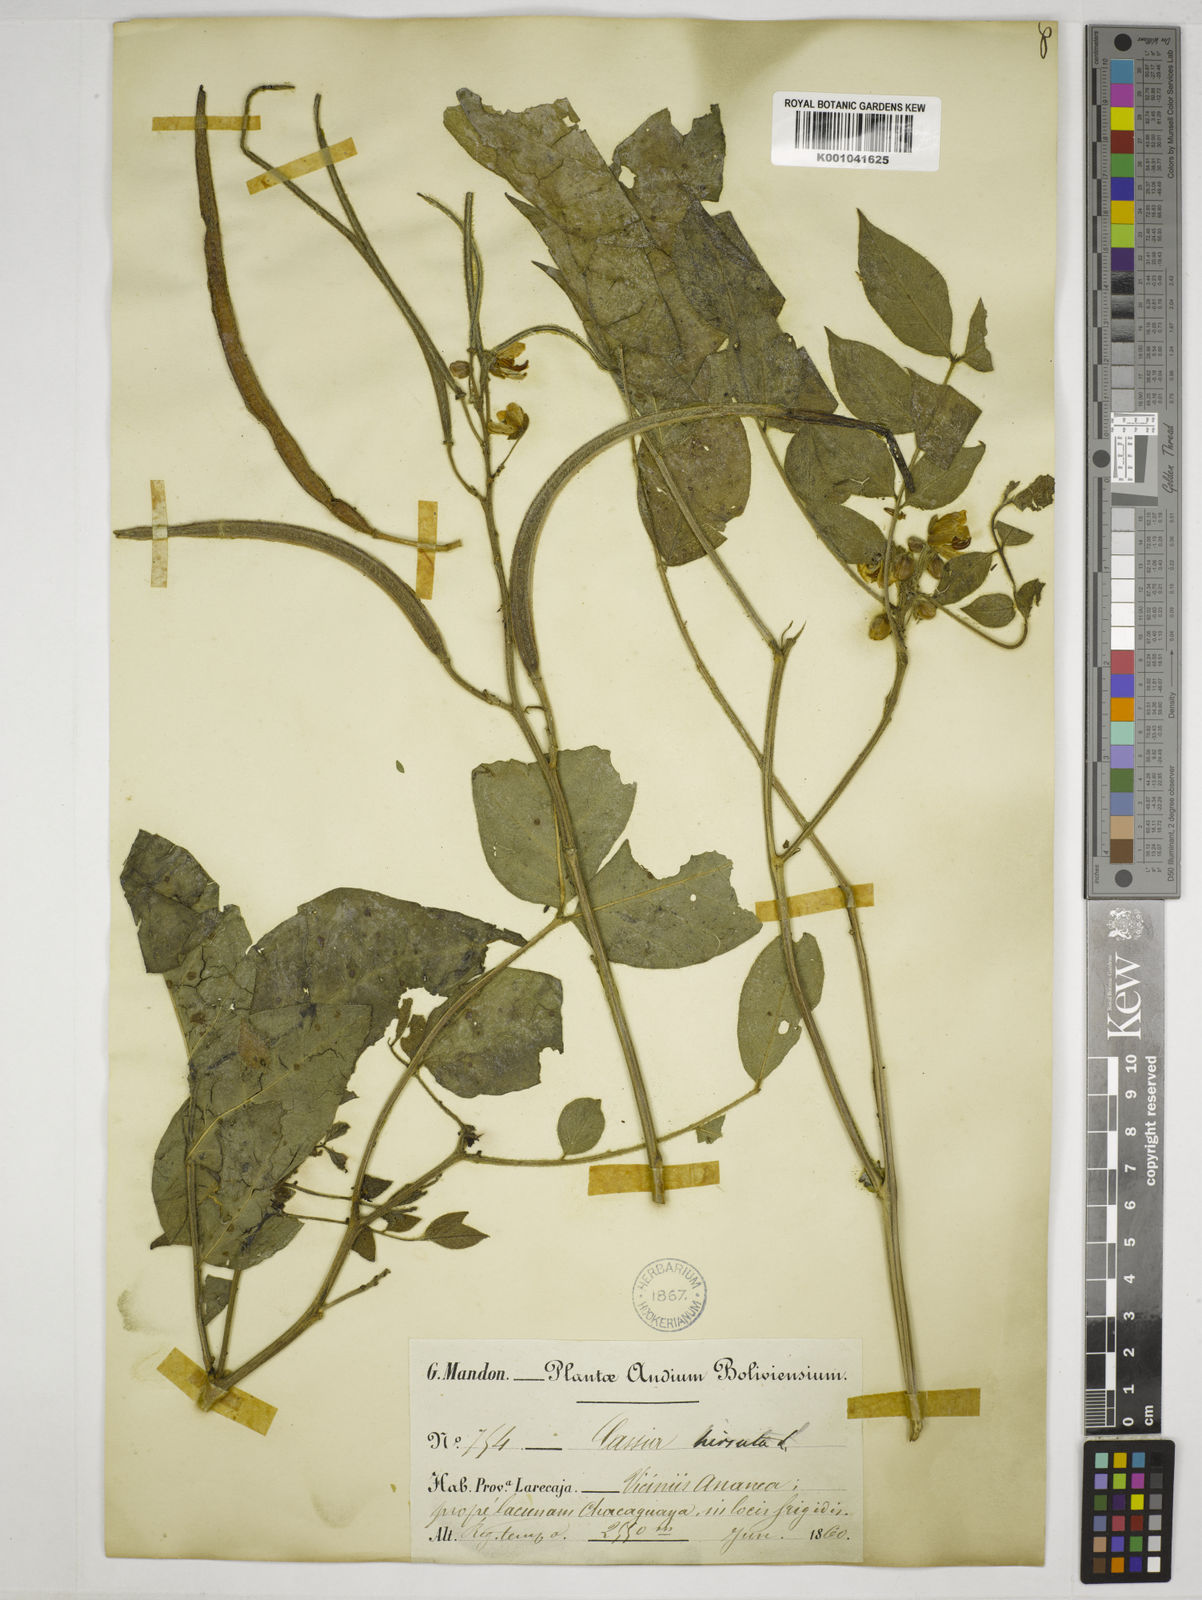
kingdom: Plantae
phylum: Tracheophyta
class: Magnoliopsida
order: Fabales
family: Fabaceae
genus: Senna
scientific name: Senna hirsuta
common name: Woolly senna
